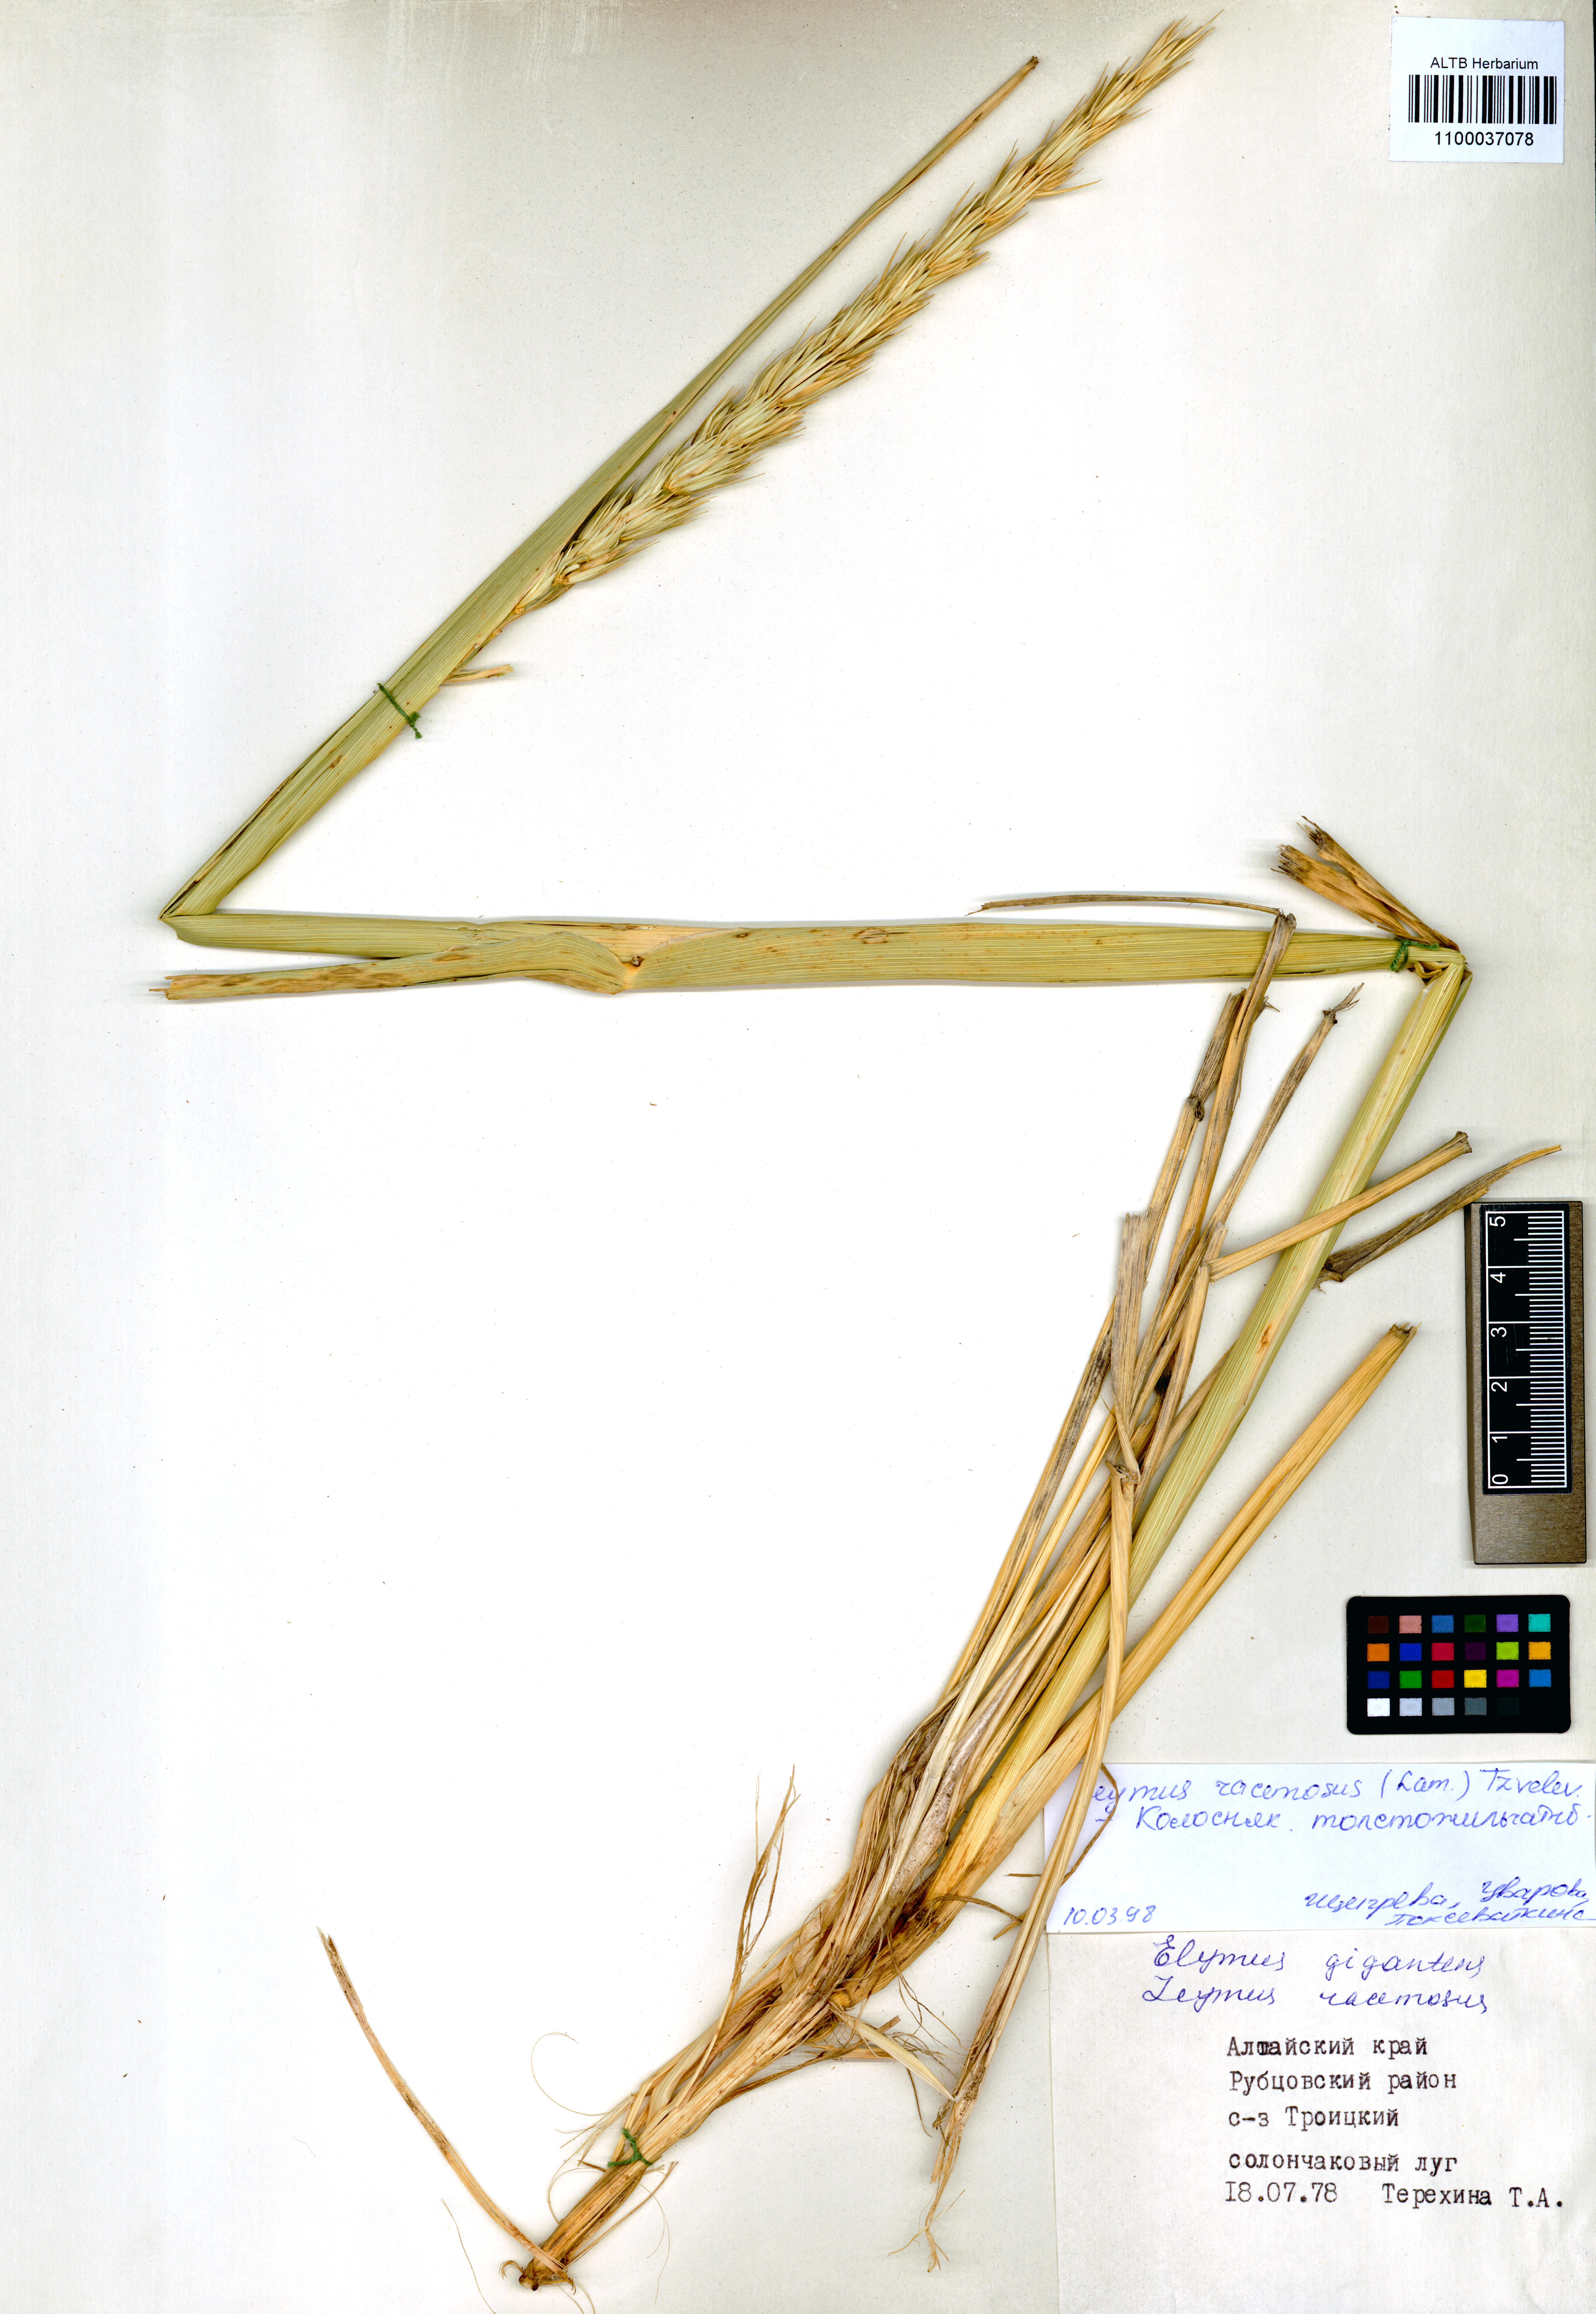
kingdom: Plantae
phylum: Tracheophyta
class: Liliopsida
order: Poales
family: Poaceae
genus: Leymus
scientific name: Leymus racemosus
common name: Mammoth wildrye
